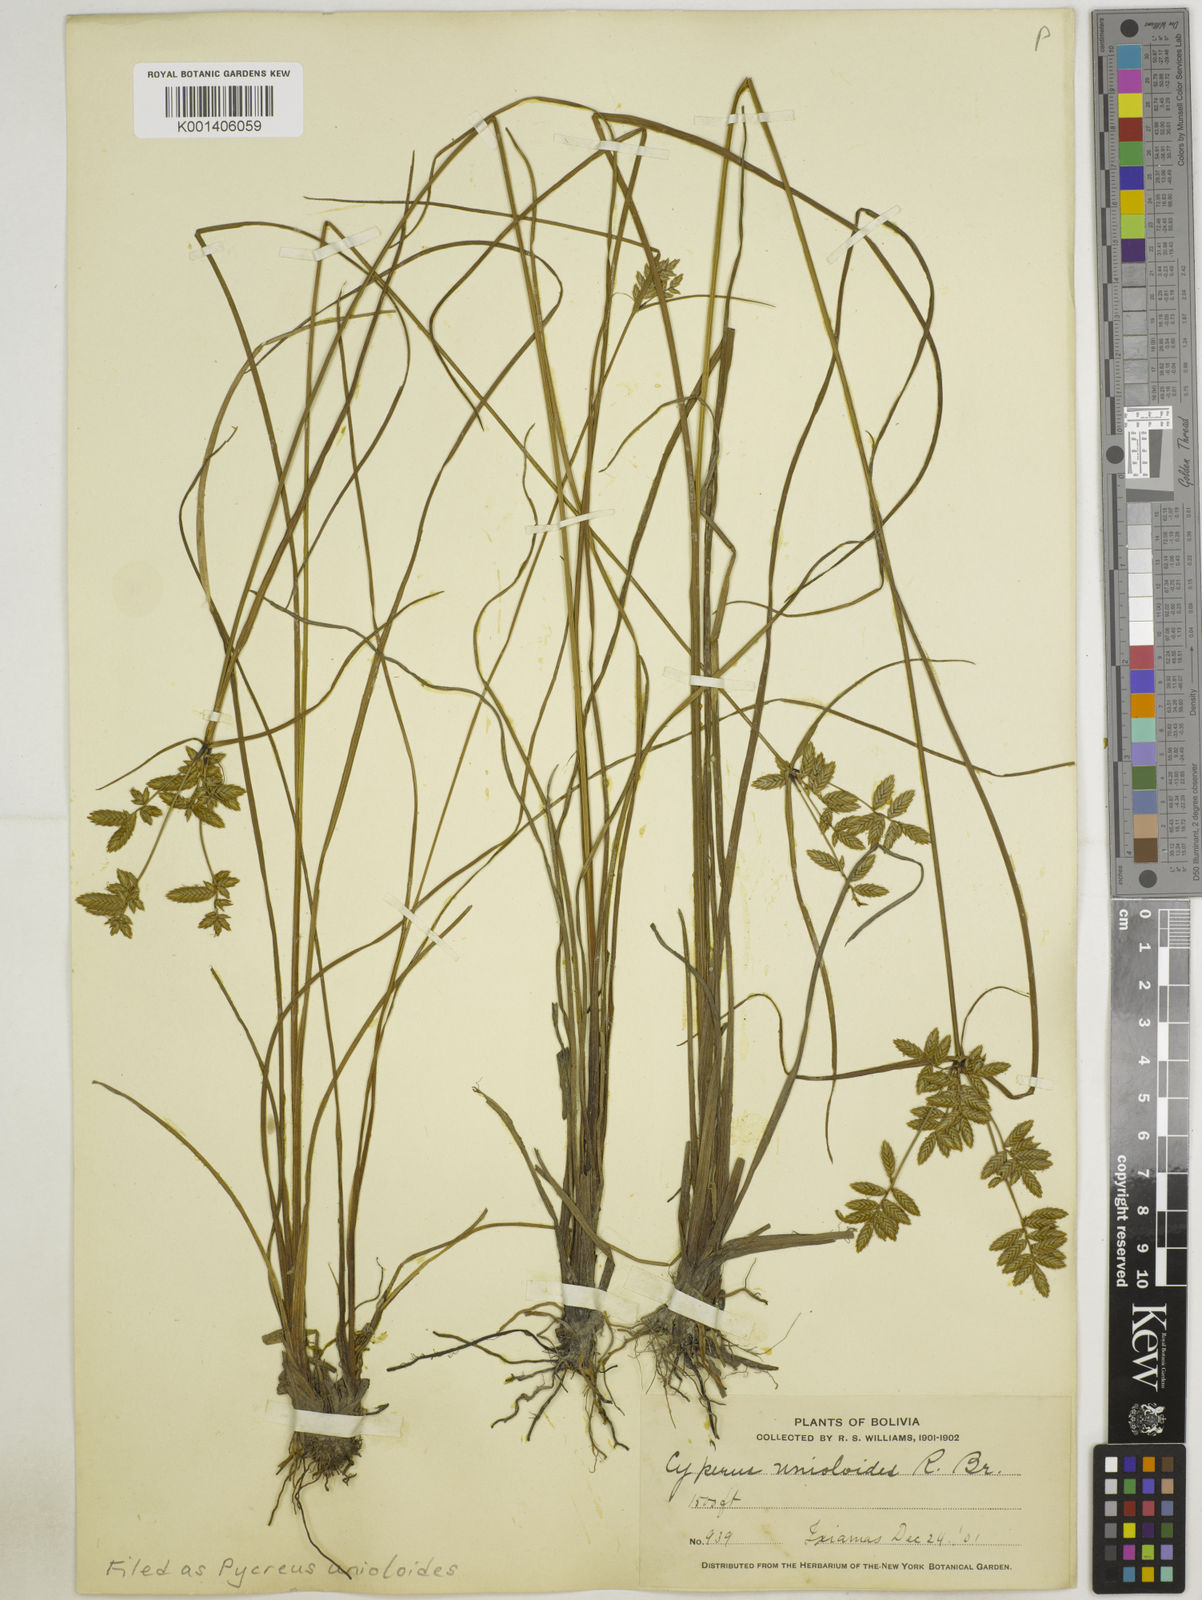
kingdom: Plantae
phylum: Tracheophyta
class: Liliopsida
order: Poales
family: Cyperaceae
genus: Cyperus
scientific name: Cyperus unioloides
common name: Uniola flatsedge
